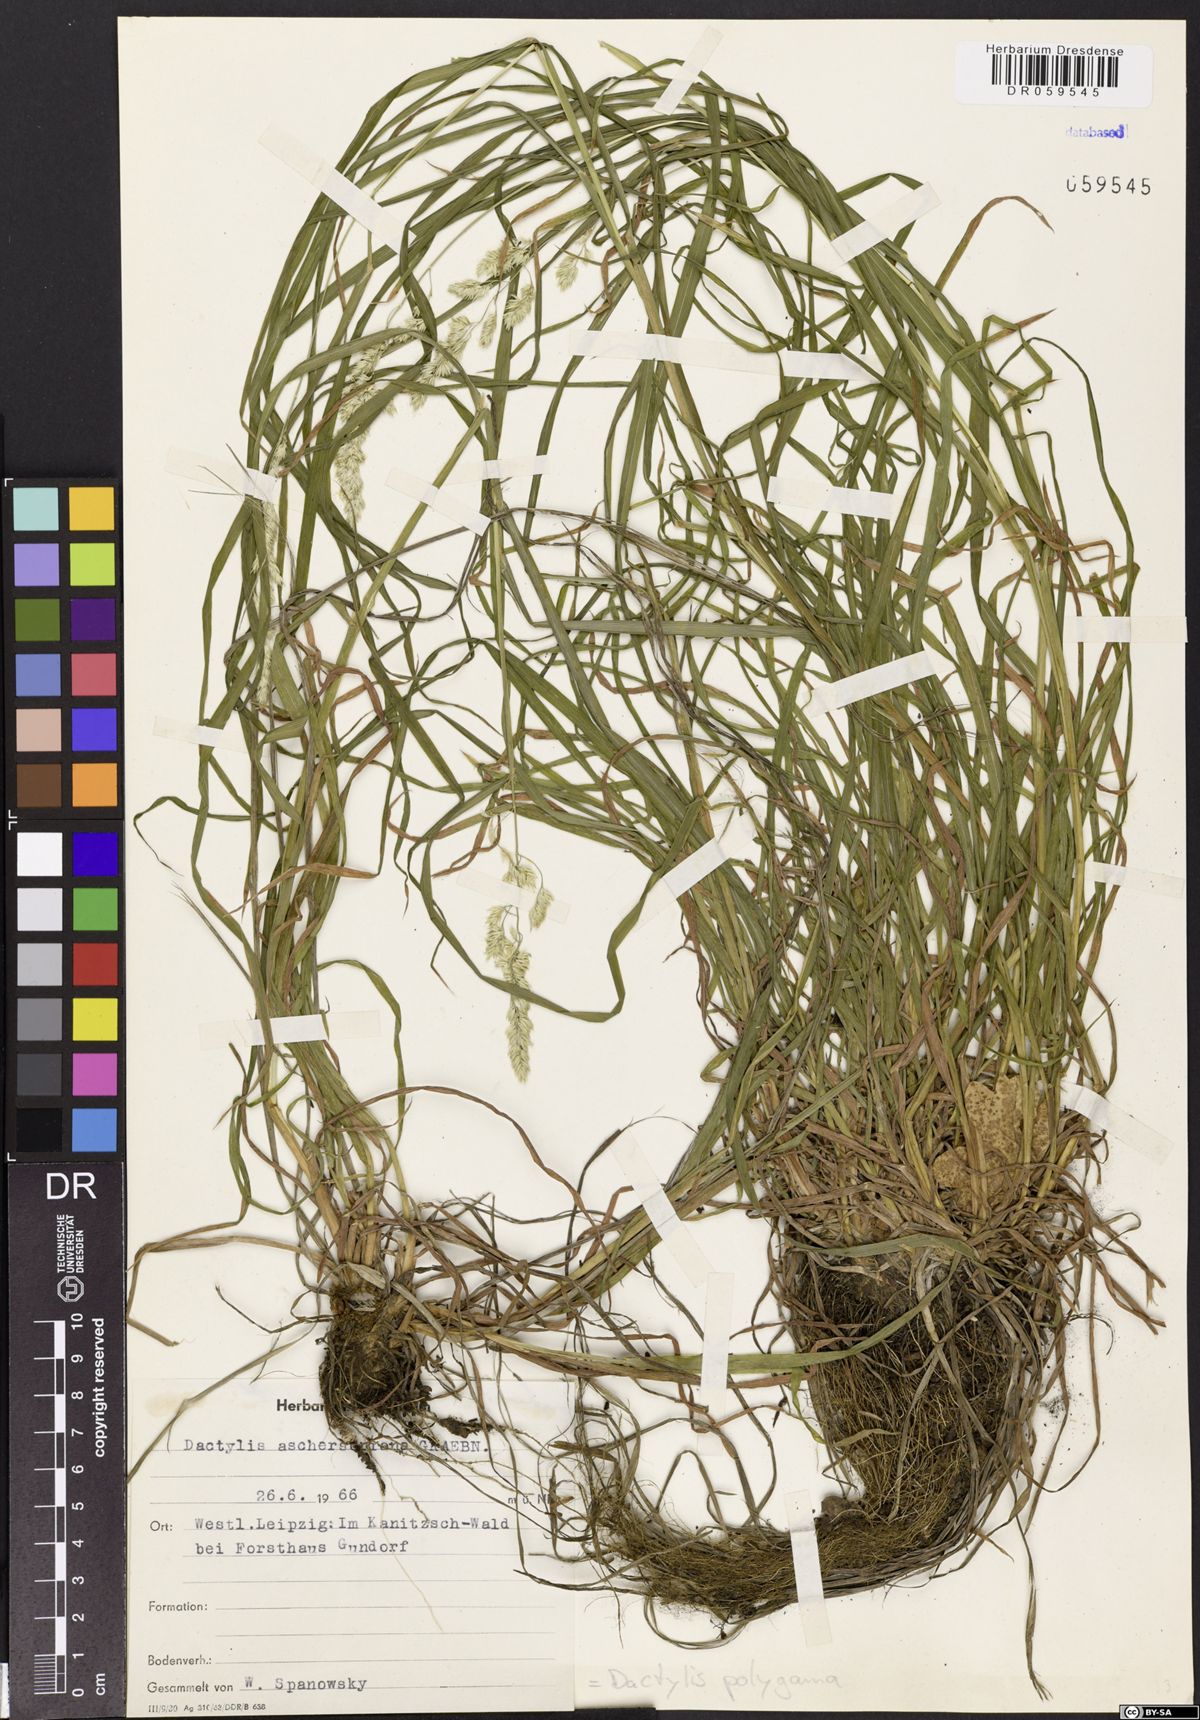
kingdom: Plantae
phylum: Tracheophyta
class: Liliopsida
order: Poales
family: Poaceae
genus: Dactylis
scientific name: Dactylis glomerata
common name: Orchardgrass
